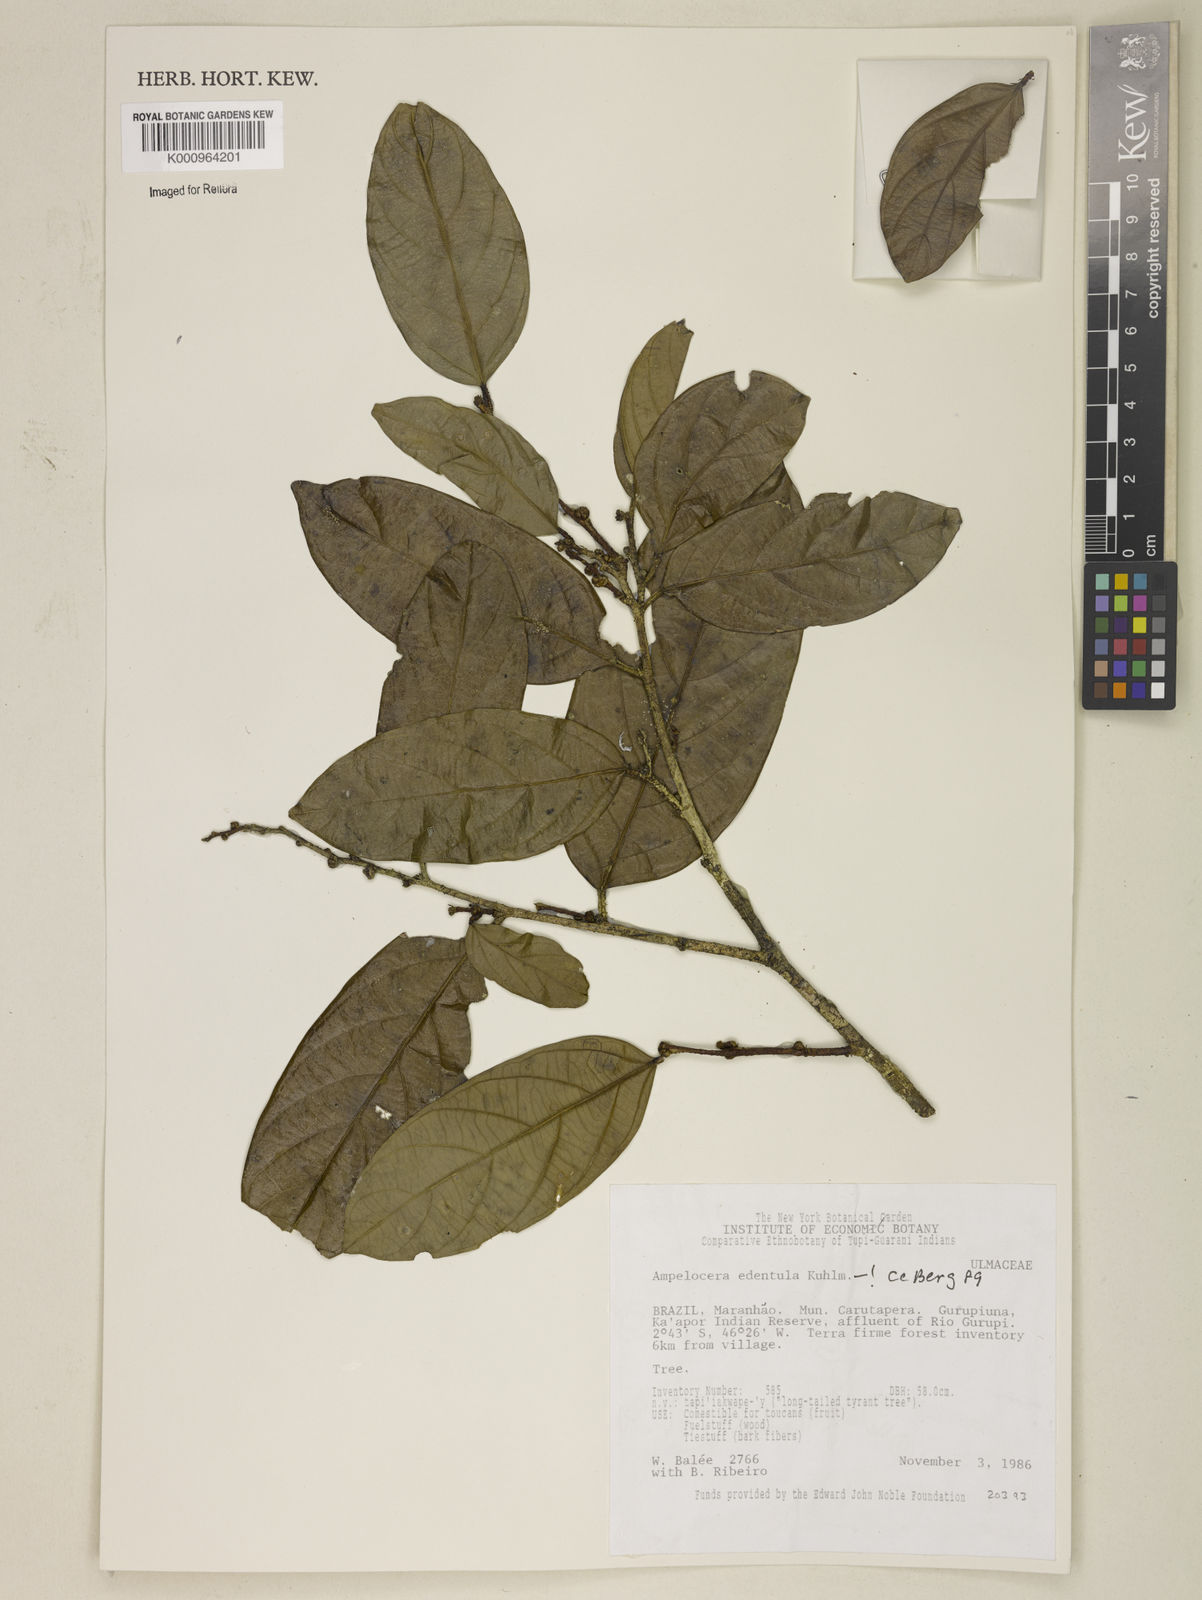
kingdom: Plantae
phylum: Tracheophyta
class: Magnoliopsida
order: Rosales
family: Cannabaceae
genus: Ampelocera
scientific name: Ampelocera edentula
